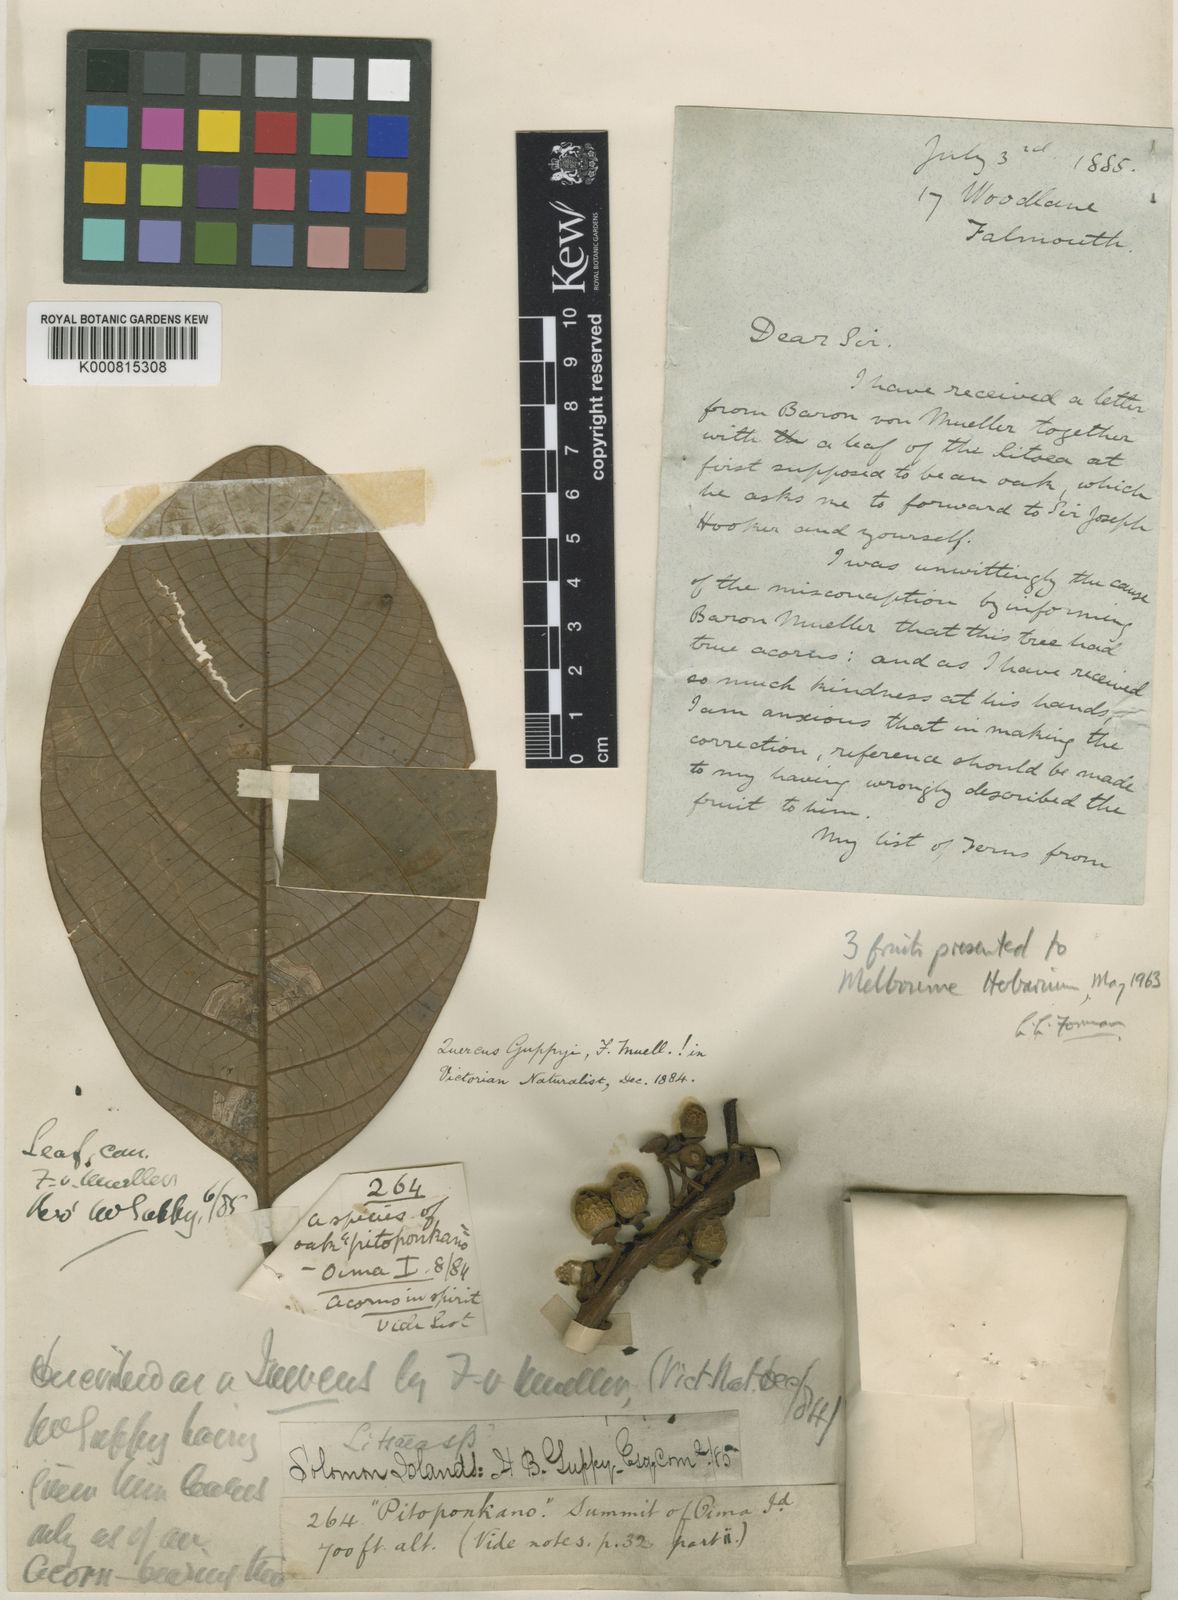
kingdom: Plantae
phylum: Tracheophyta
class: Magnoliopsida
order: Laurales
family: Lauraceae
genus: Litsea
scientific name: Litsea guppyi
